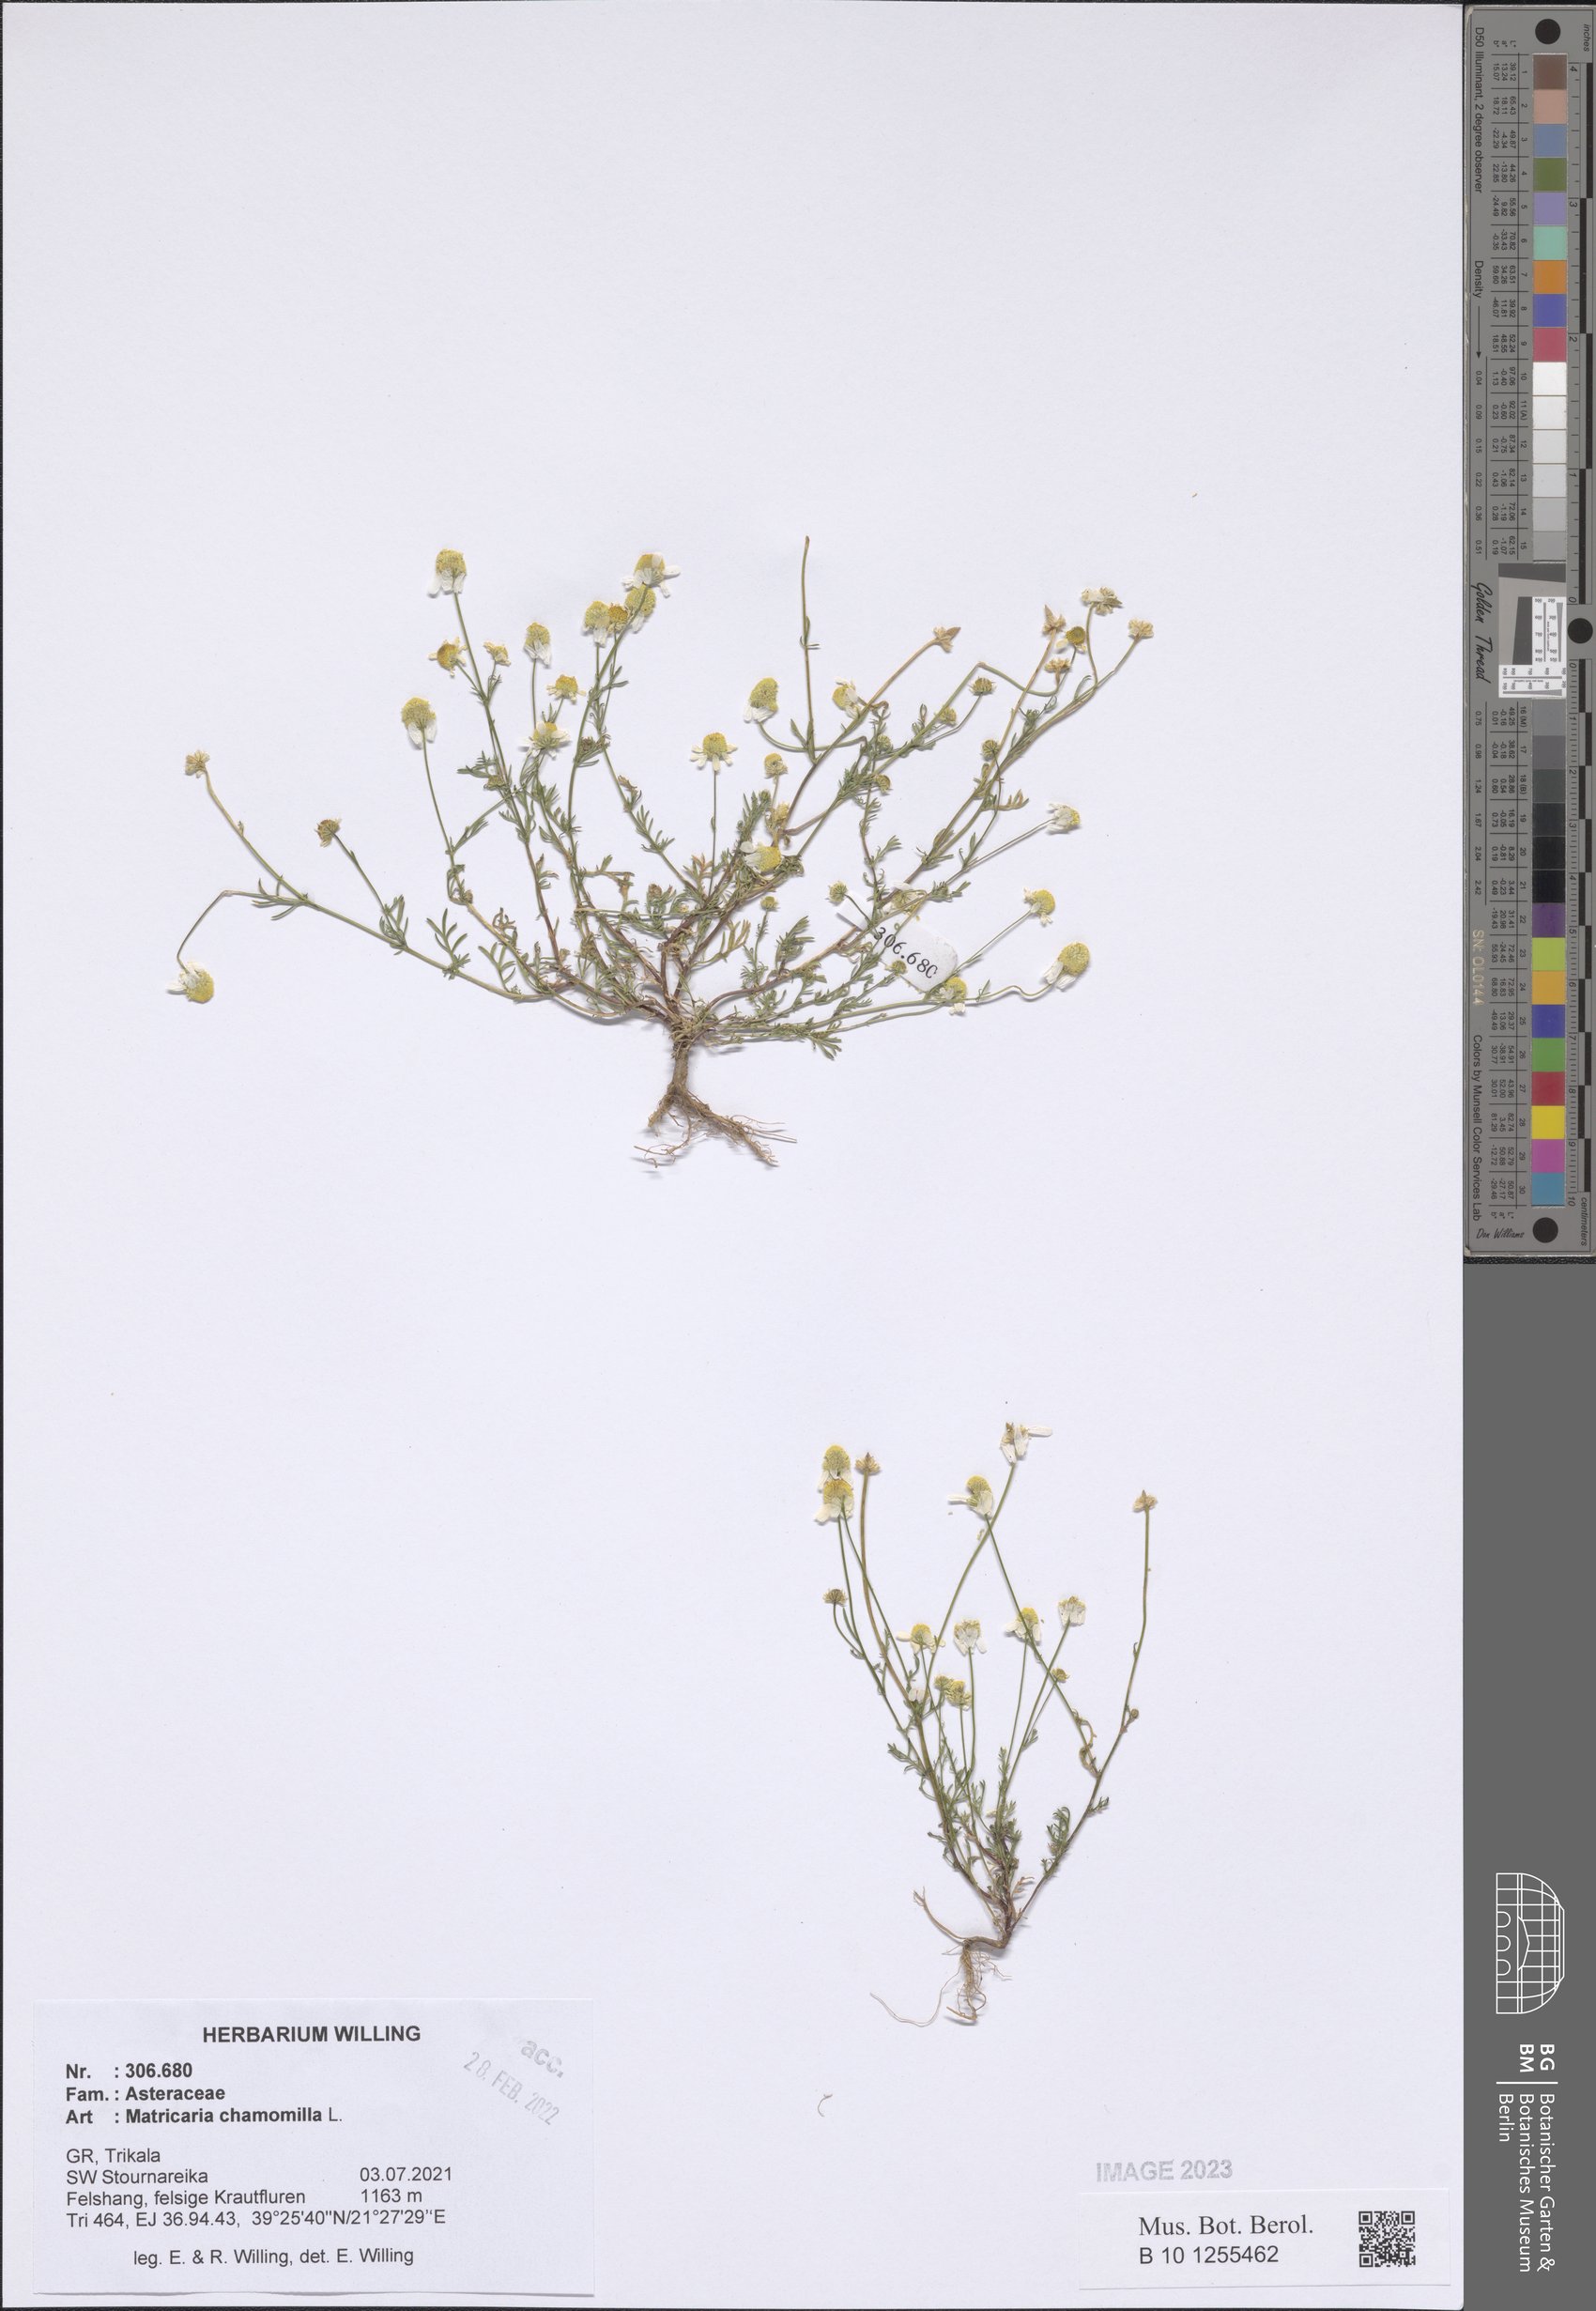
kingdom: Plantae
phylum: Tracheophyta
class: Magnoliopsida
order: Asterales
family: Asteraceae
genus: Matricaria
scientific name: Matricaria chamomilla
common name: Scented mayweed
